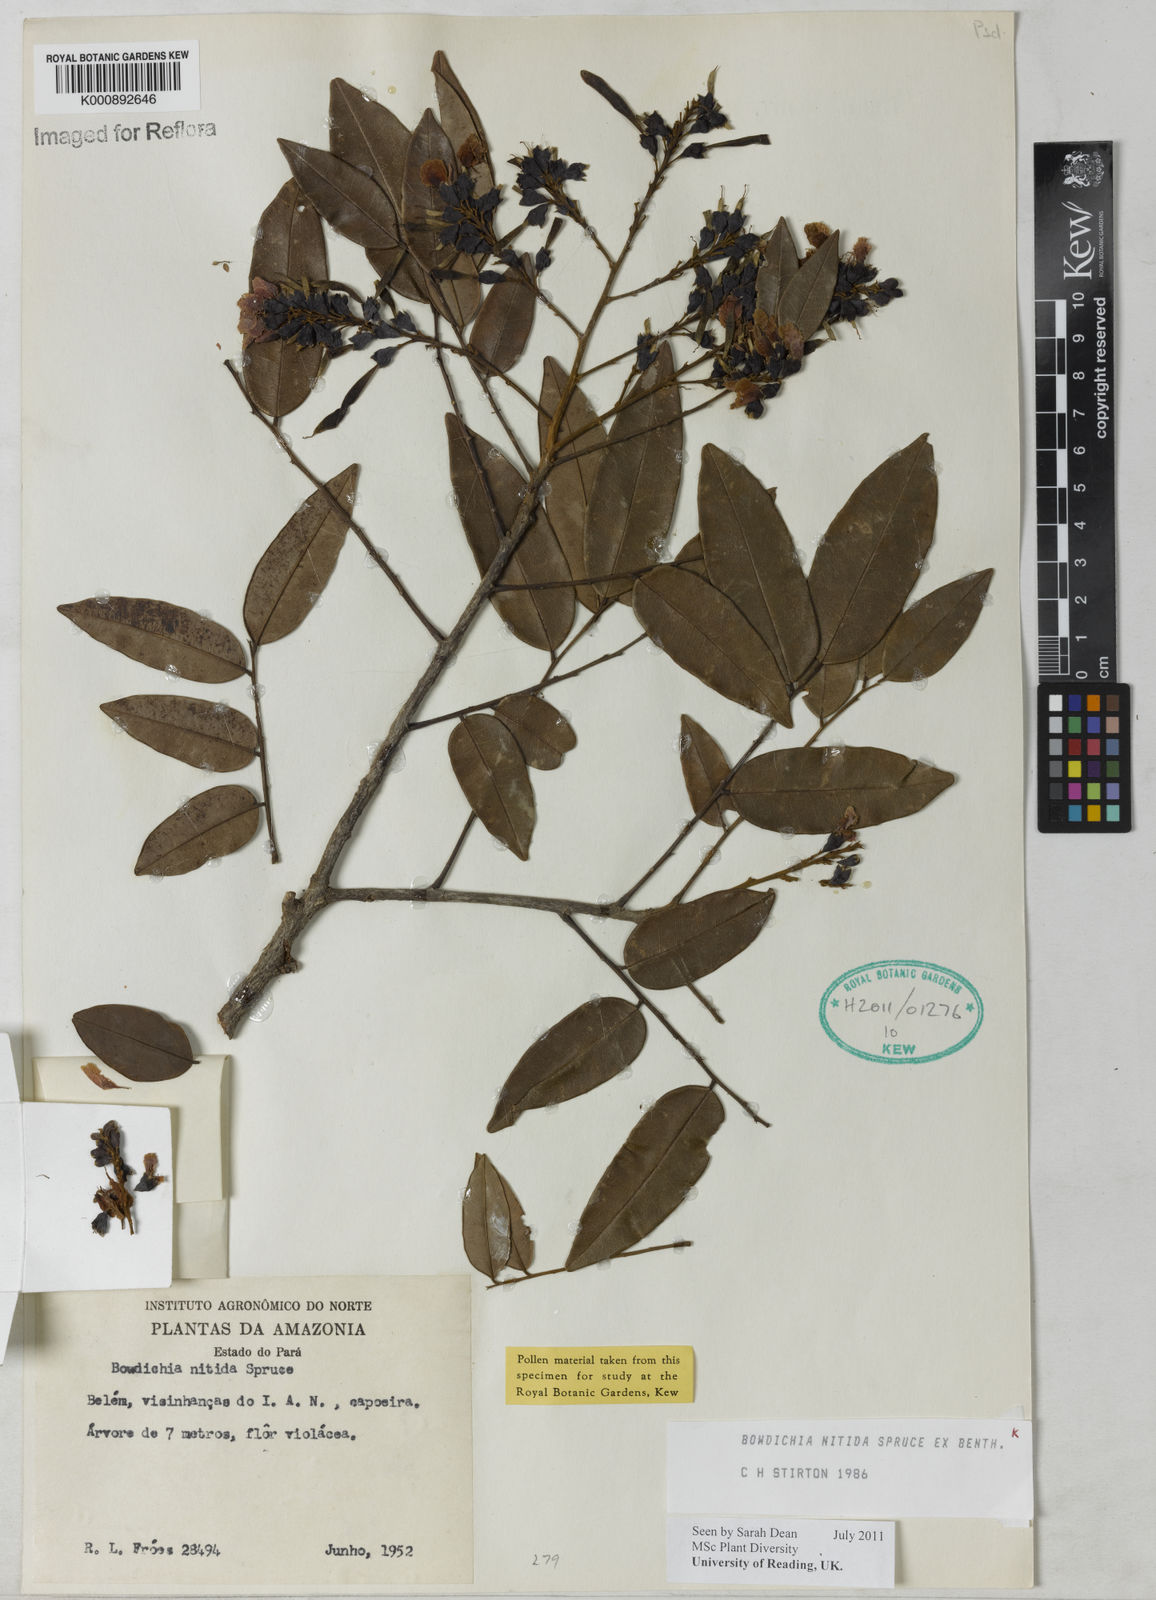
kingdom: Plantae
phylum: Tracheophyta
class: Magnoliopsida
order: Fabales
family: Fabaceae
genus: Bowdichia
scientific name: Bowdichia nitida
